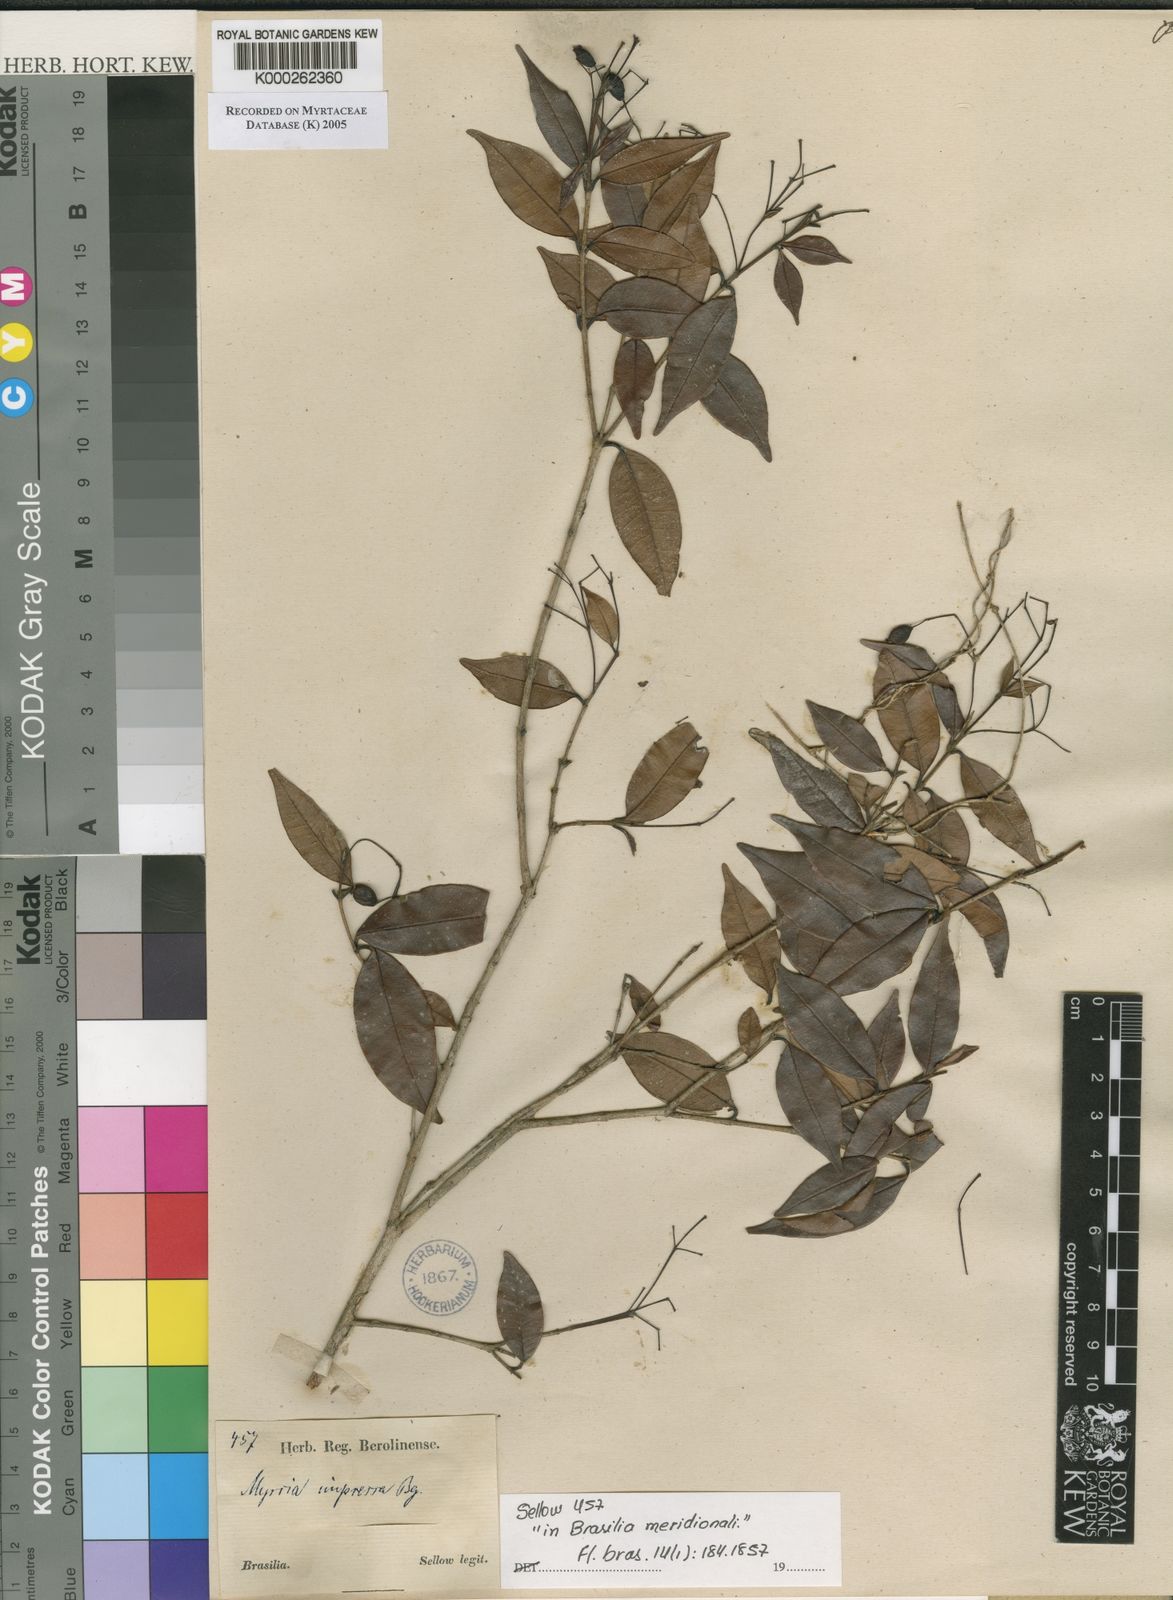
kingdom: Plantae
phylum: Tracheophyta
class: Magnoliopsida
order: Myrtales
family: Myrtaceae
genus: Myrcia
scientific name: Myrcia splendens
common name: Surinam cherry
